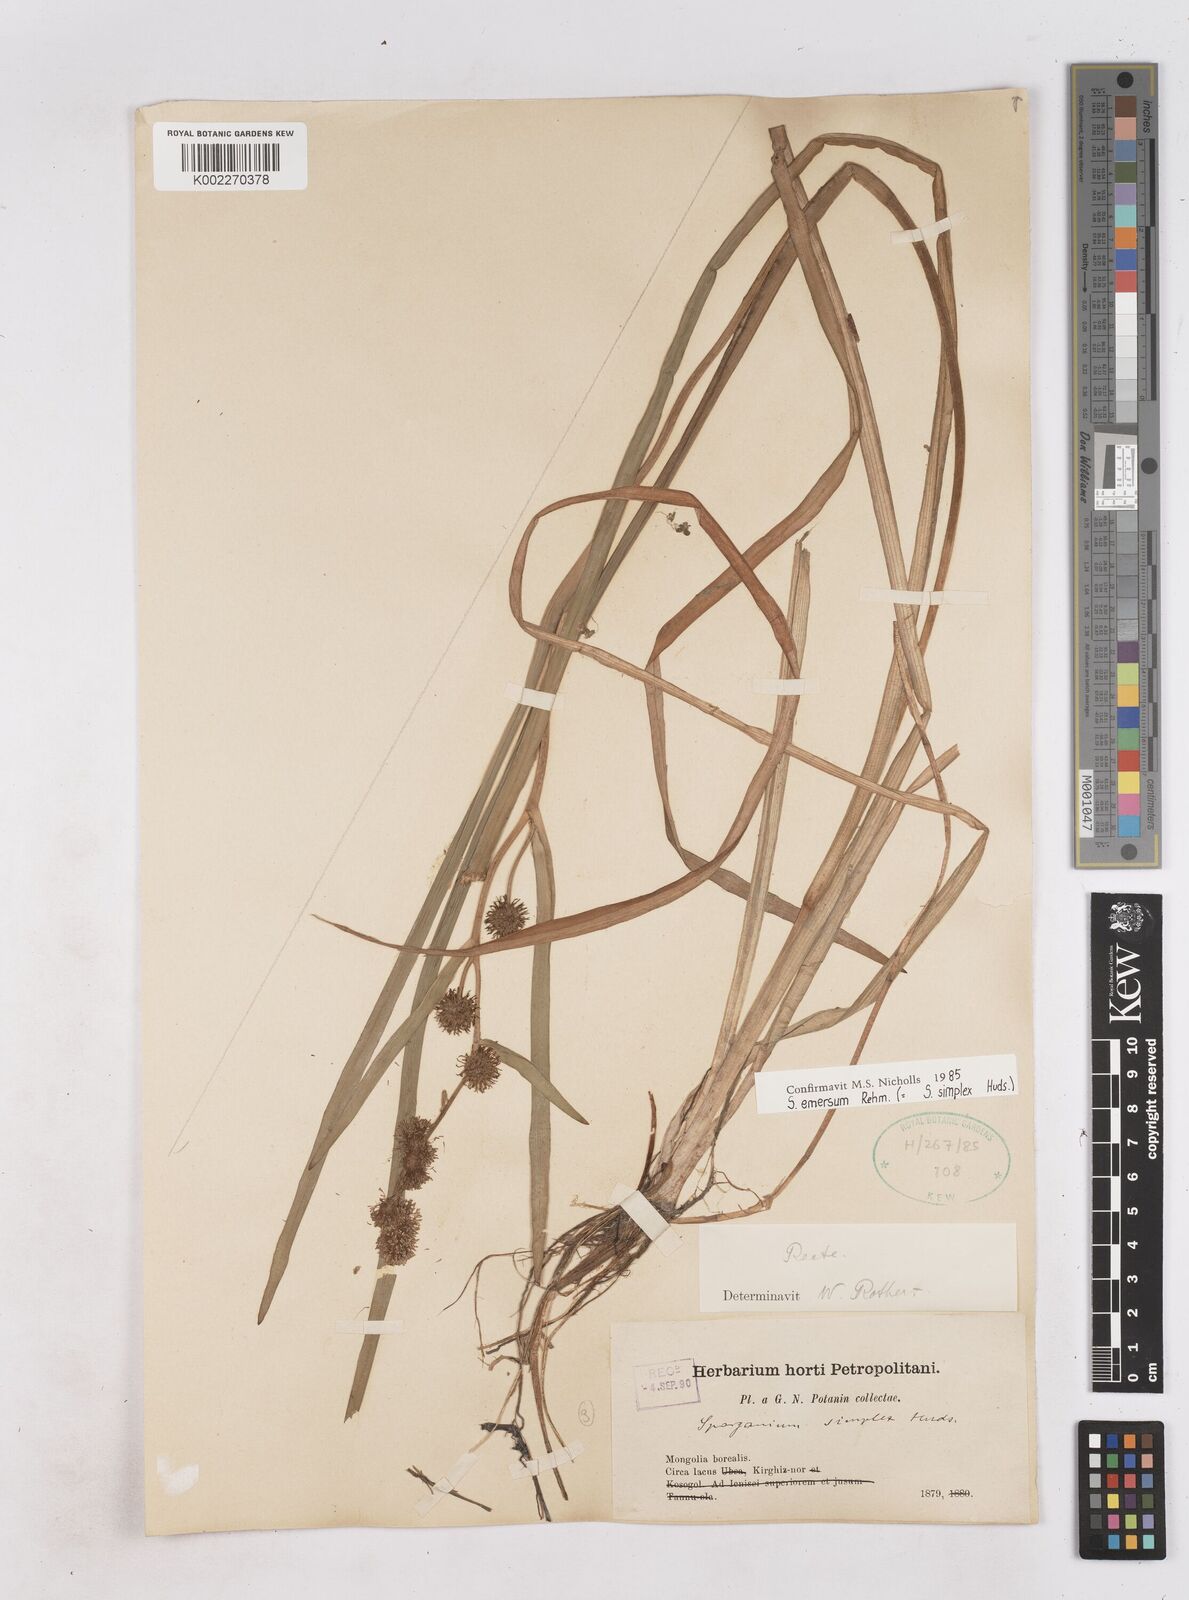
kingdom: Plantae
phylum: Tracheophyta
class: Liliopsida
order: Poales
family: Typhaceae
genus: Sparganium
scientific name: Sparganium angustifolium
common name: Floating bur-reed
